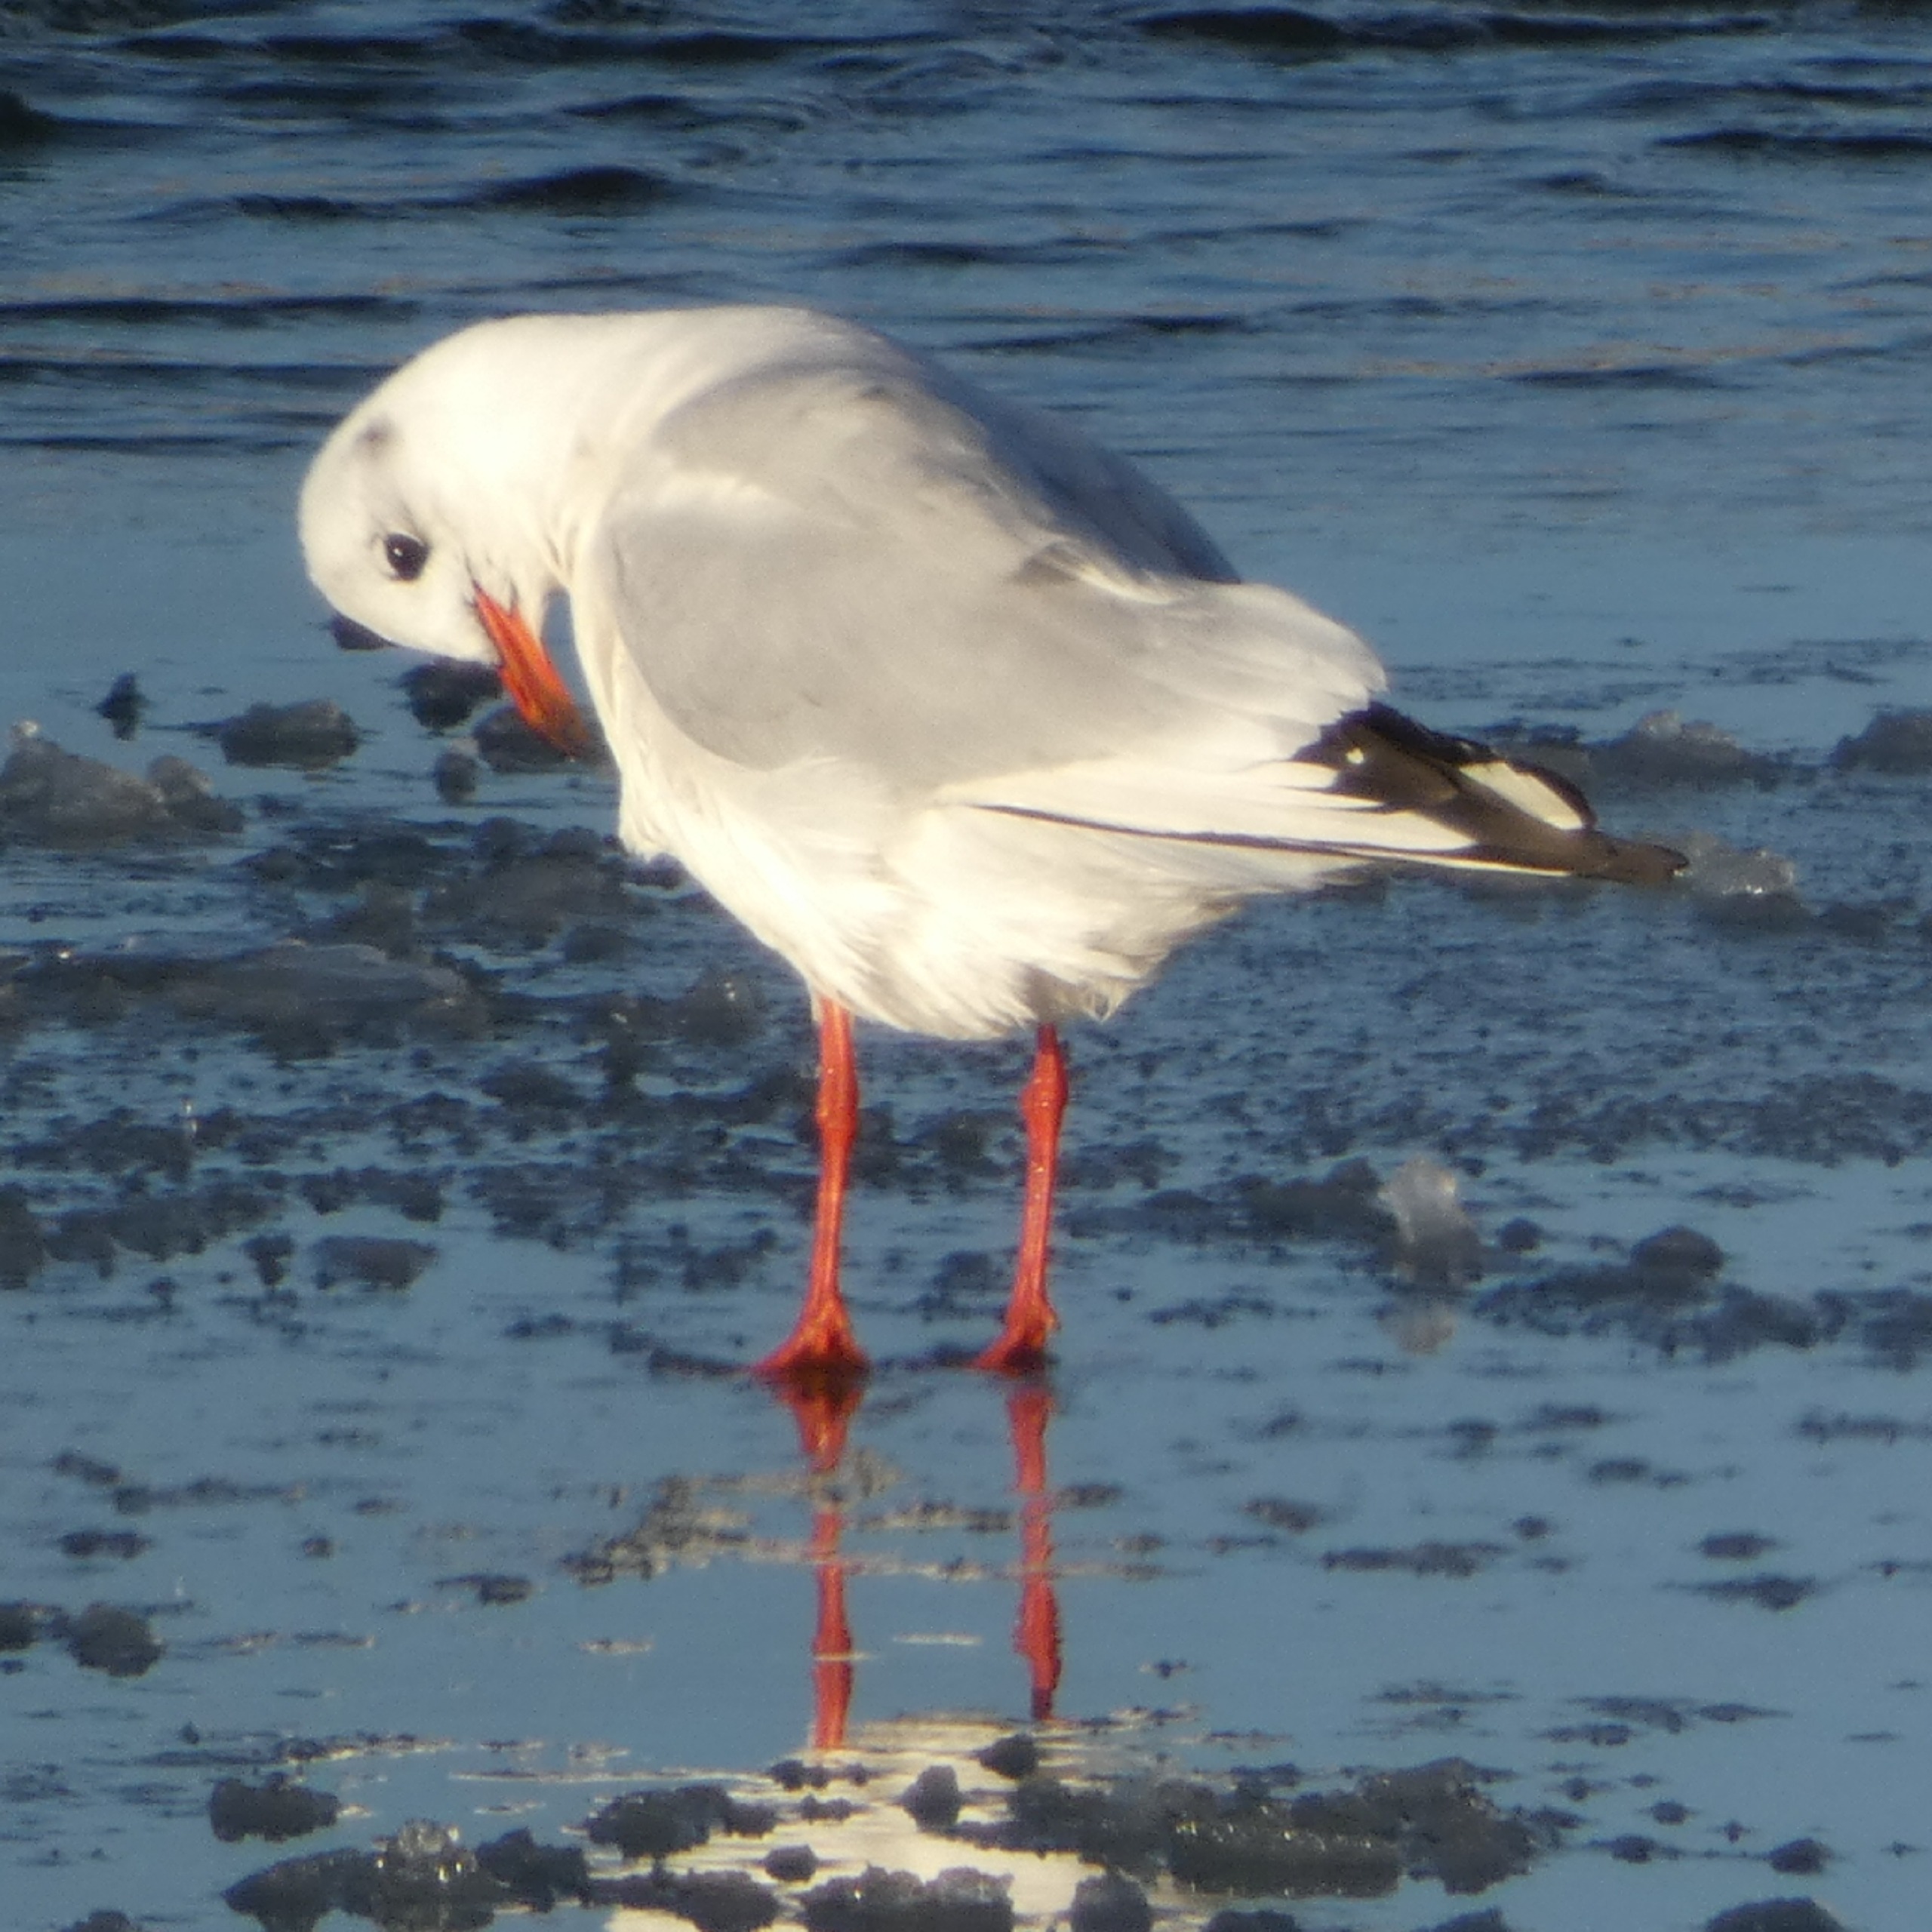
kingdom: Animalia
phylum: Chordata
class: Aves
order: Charadriiformes
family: Laridae
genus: Chroicocephalus
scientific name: Chroicocephalus ridibundus
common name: Hættemåge
